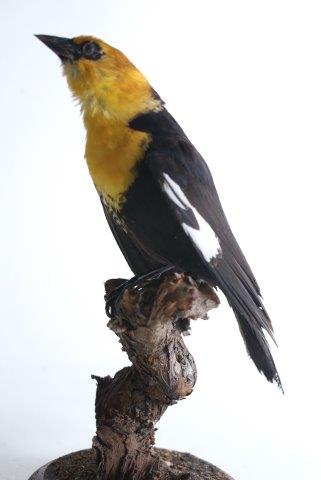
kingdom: Animalia
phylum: Chordata
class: Aves
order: Passeriformes
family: Icteridae
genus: Xanthocephalus
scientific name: Xanthocephalus xanthocephalus
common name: Geelkoptroepiaal
